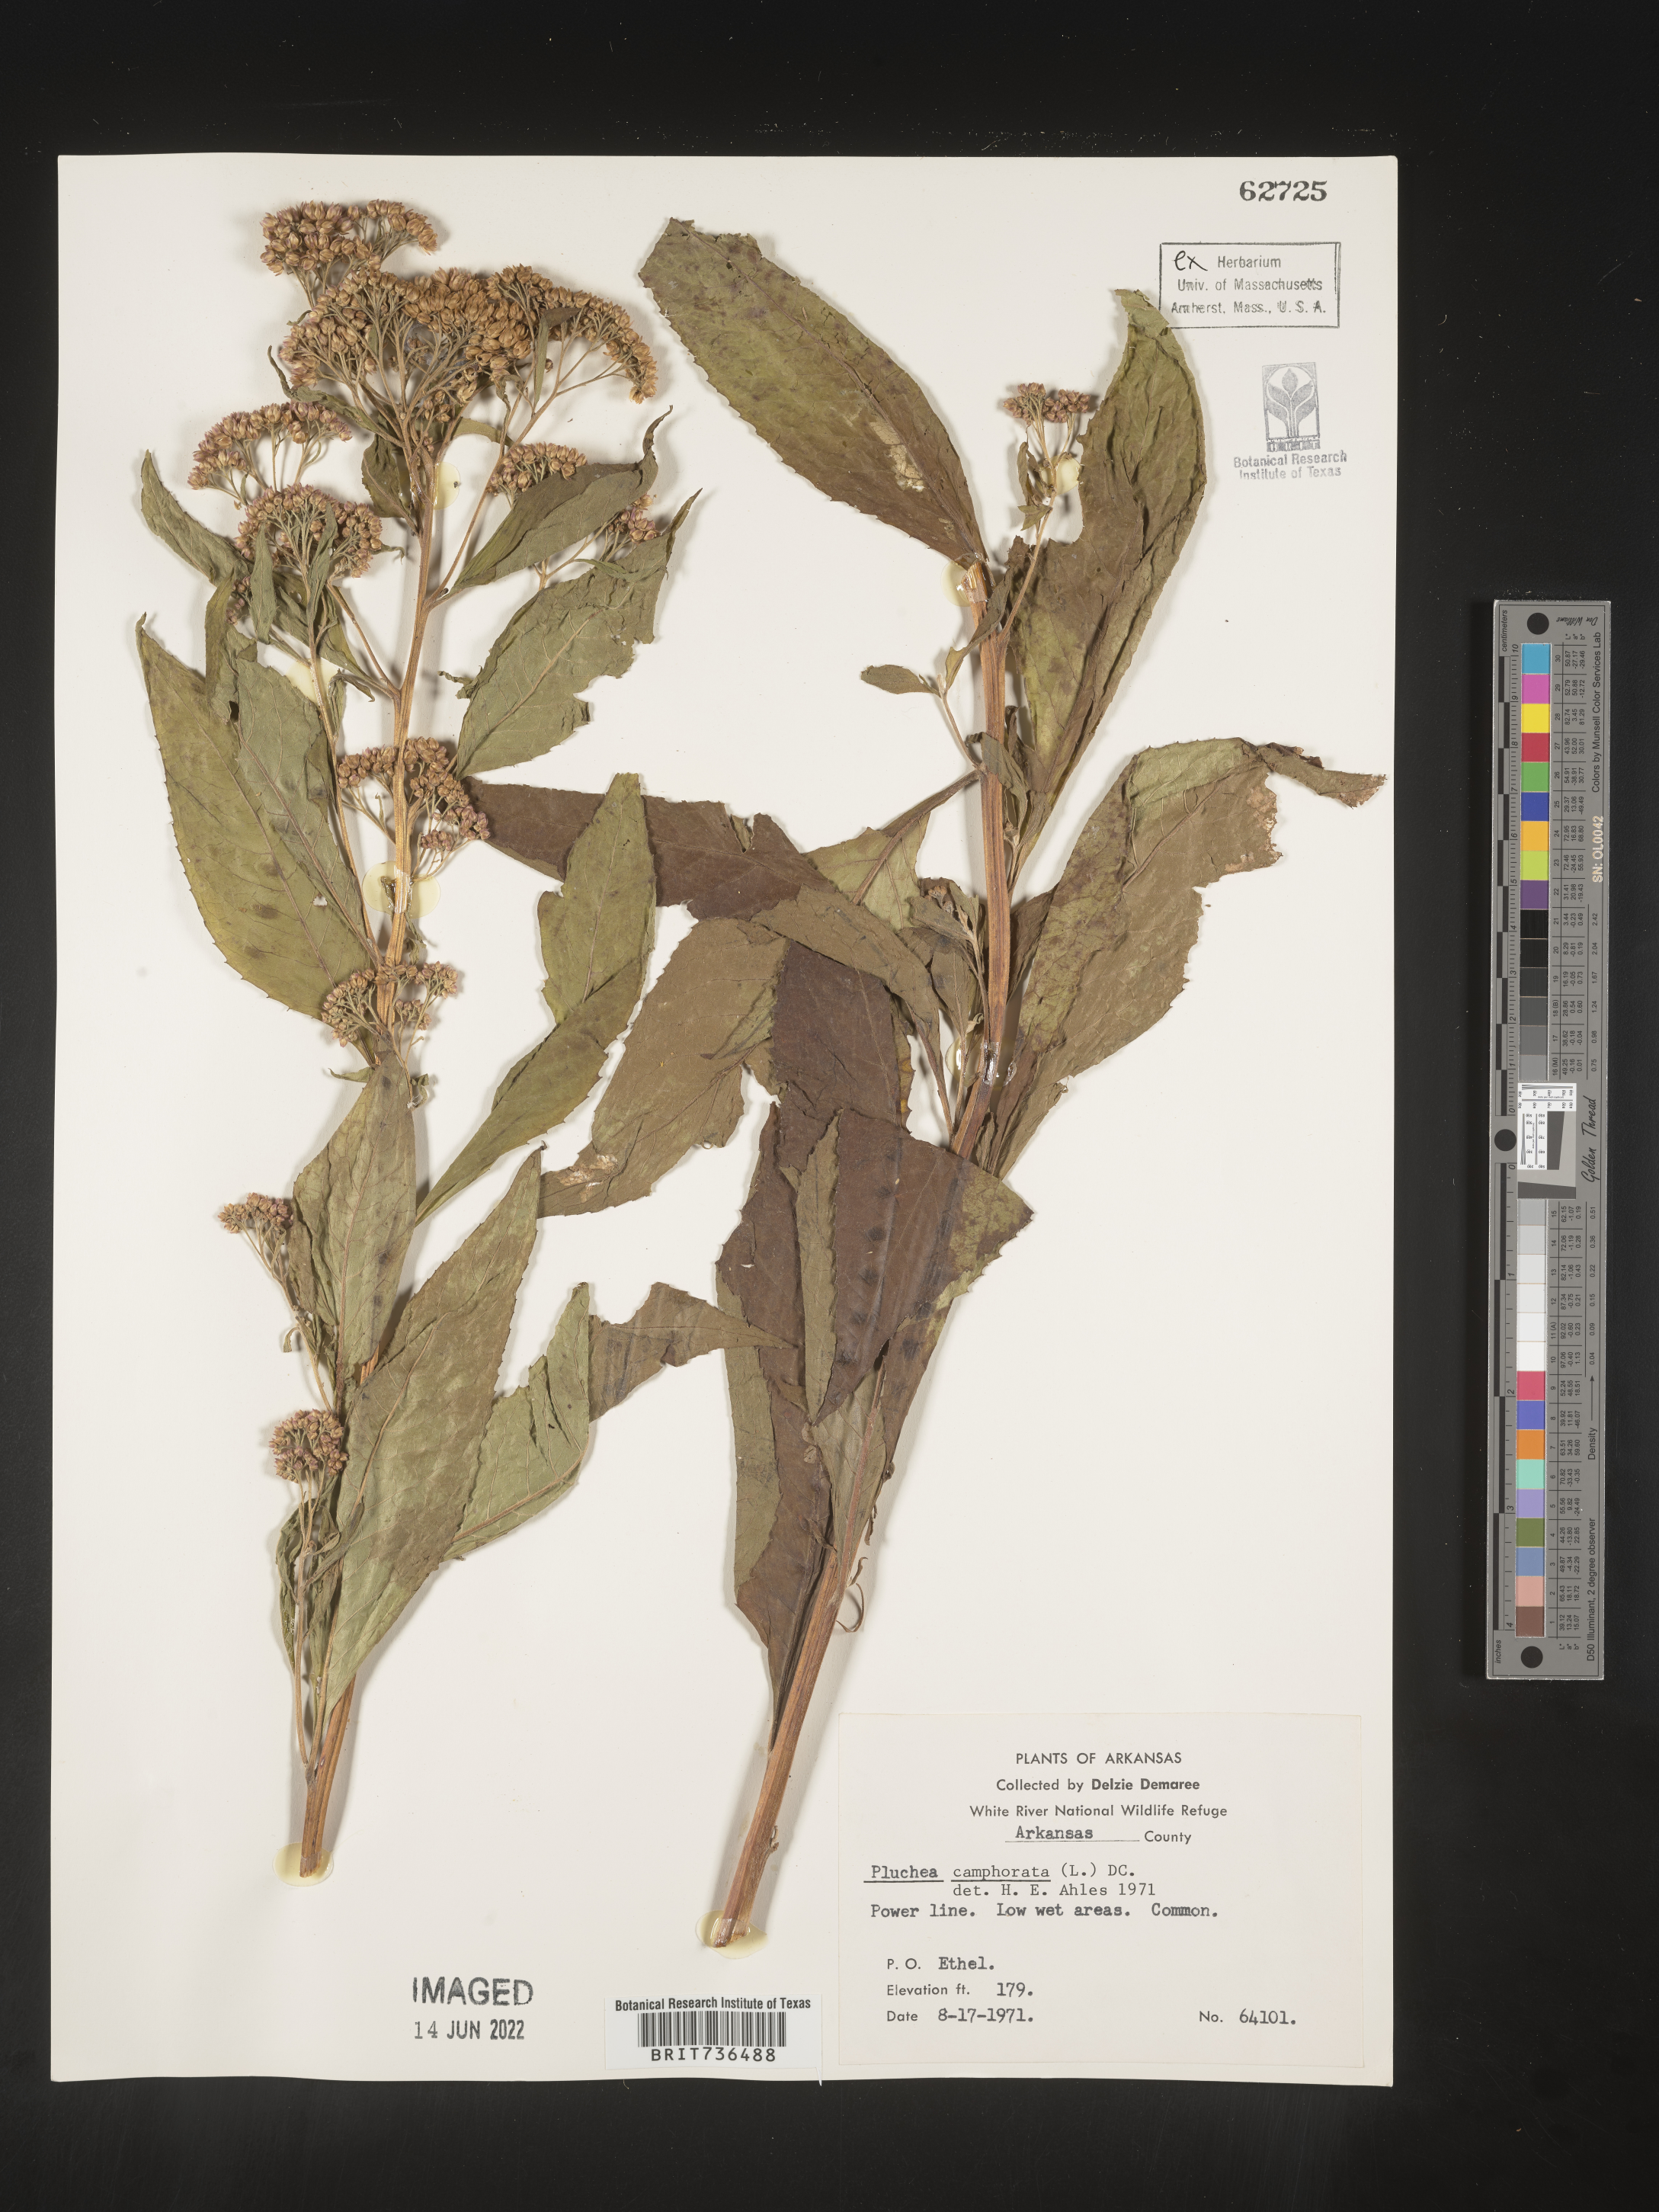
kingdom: Plantae
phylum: Tracheophyta
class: Magnoliopsida
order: Asterales
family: Asteraceae
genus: Pluchea
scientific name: Pluchea camphorata
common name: Camphor pluchea
